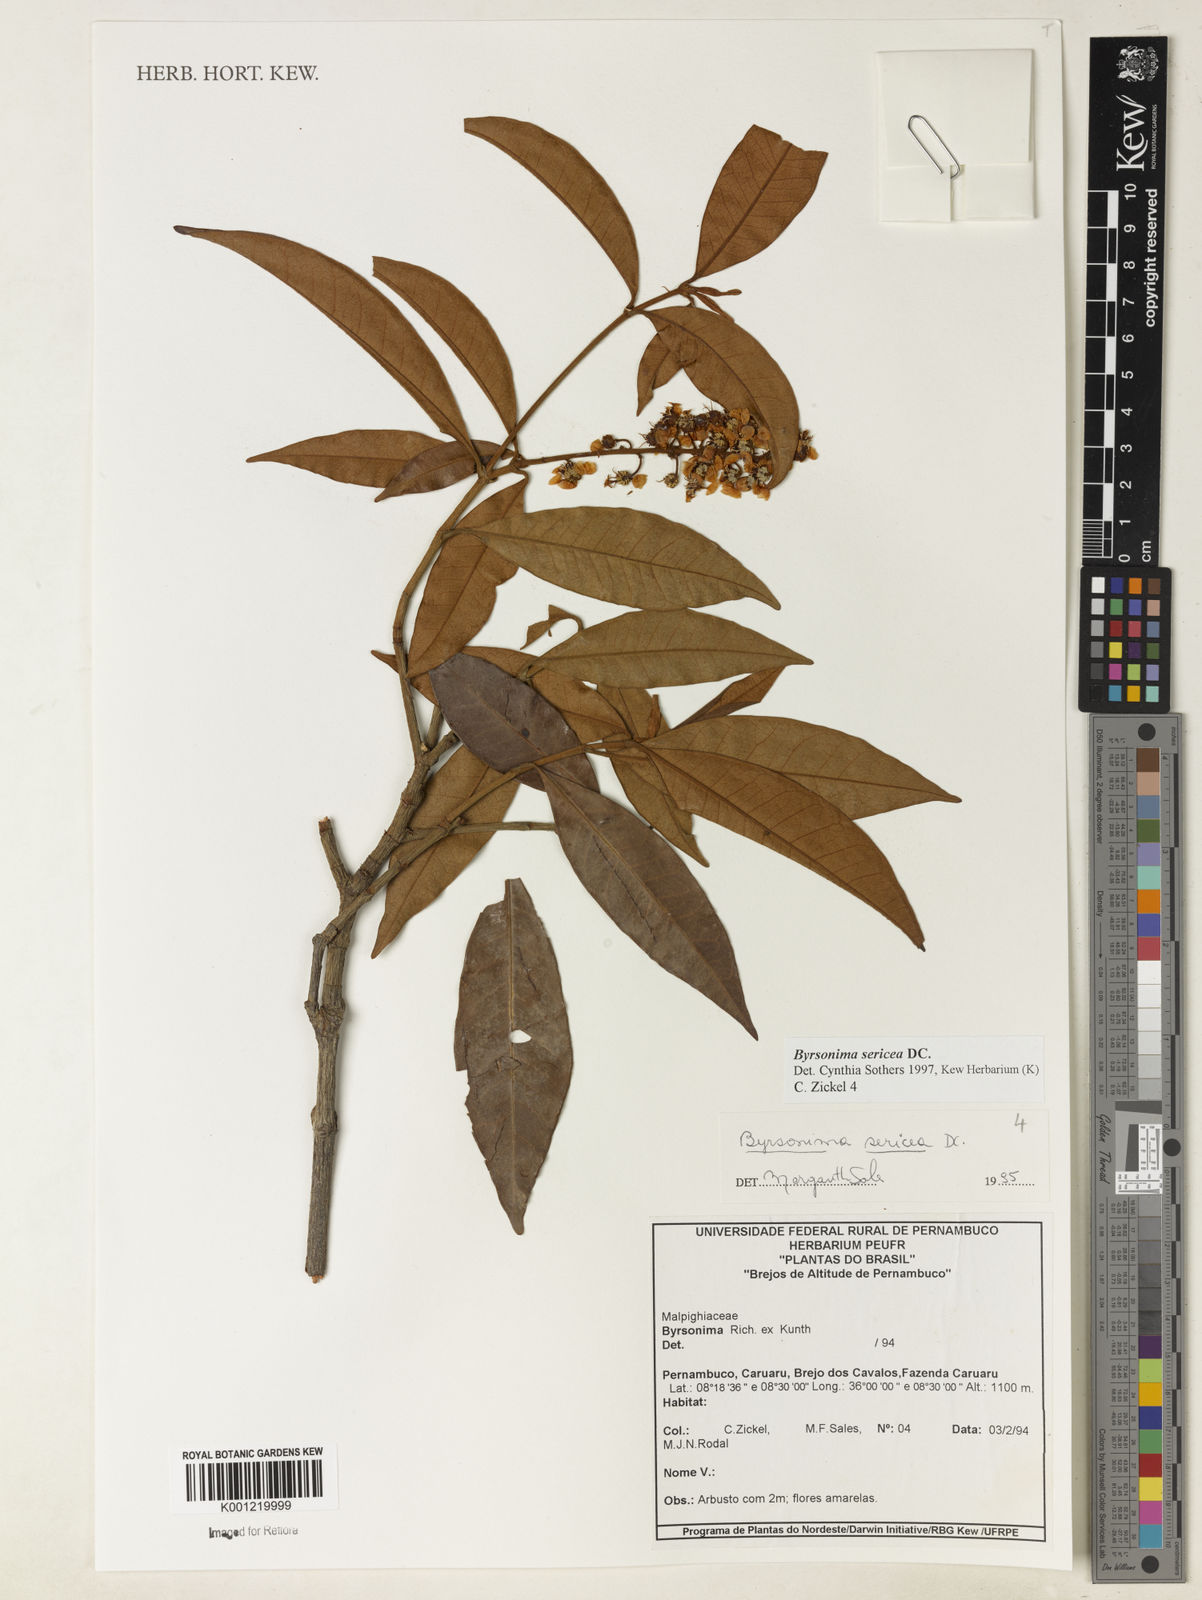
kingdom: Plantae
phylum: Tracheophyta
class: Magnoliopsida
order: Malpighiales
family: Malpighiaceae
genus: Byrsonima
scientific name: Byrsonima sericea
